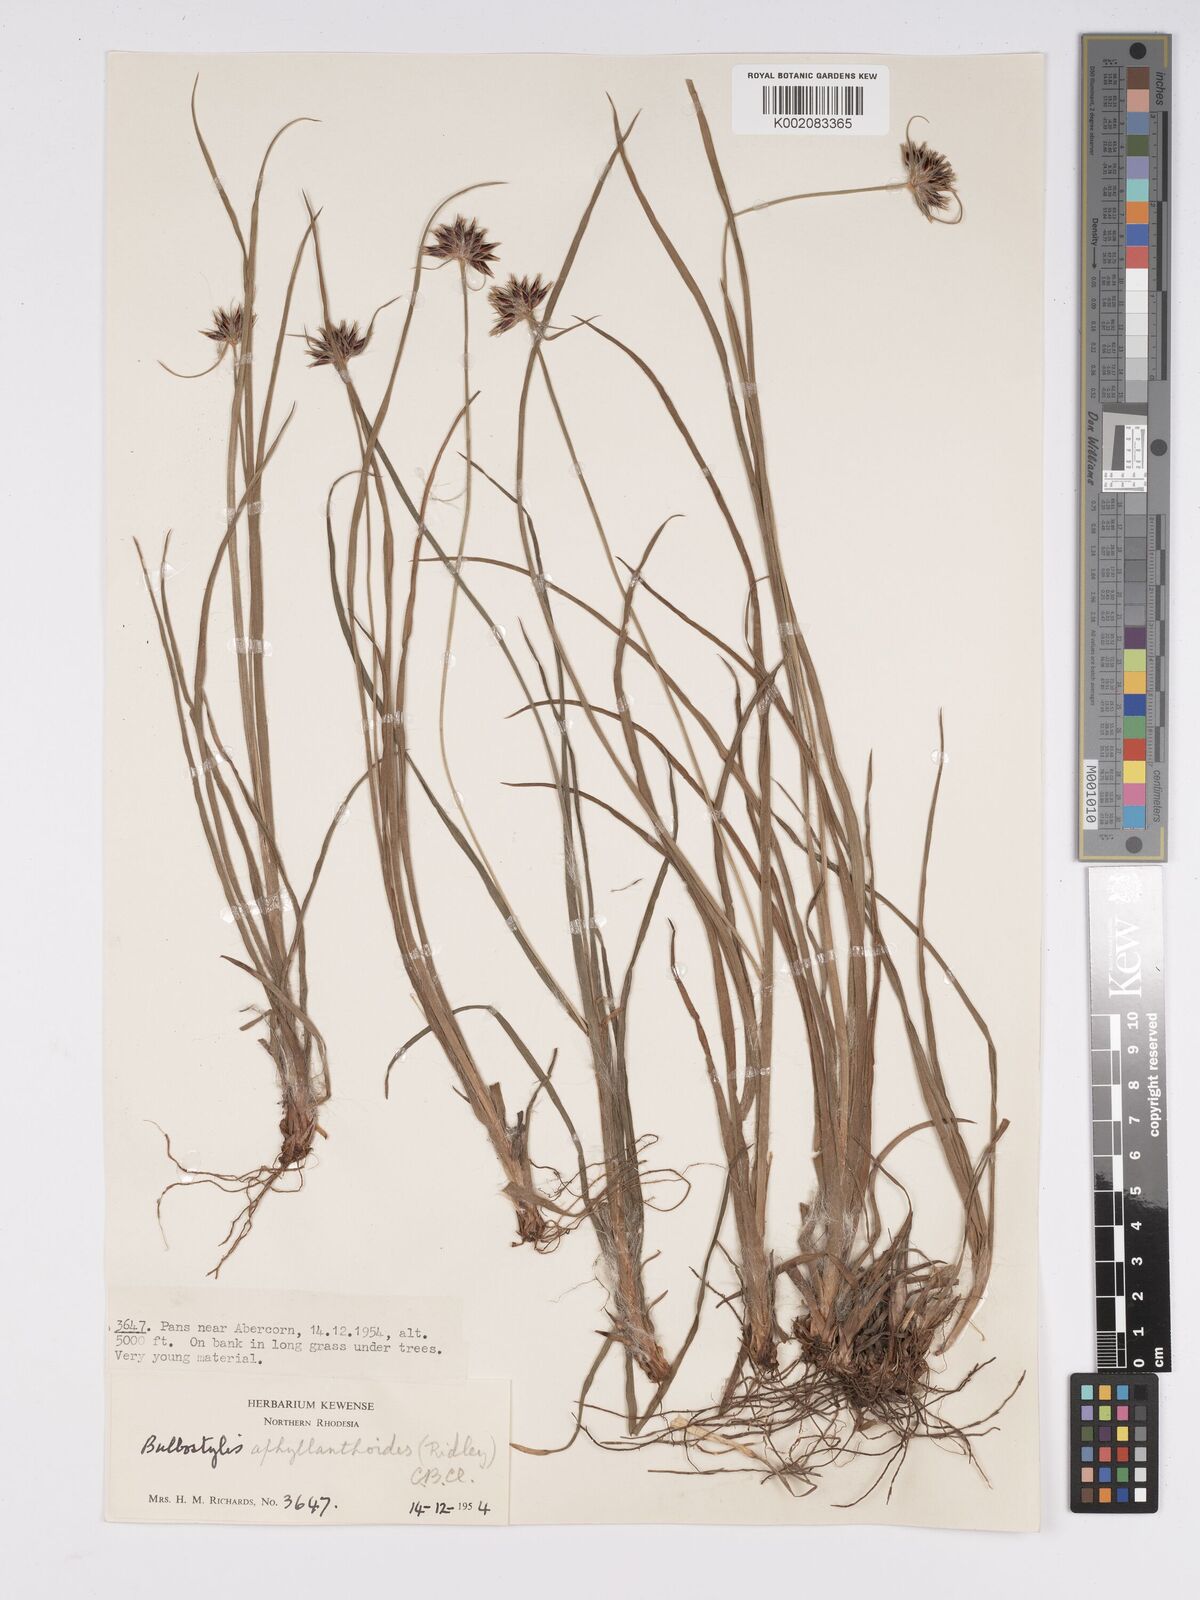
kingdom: Plantae
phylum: Tracheophyta
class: Liliopsida
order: Poales
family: Cyperaceae
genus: Bulbostylis
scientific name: Bulbostylis pilosa
